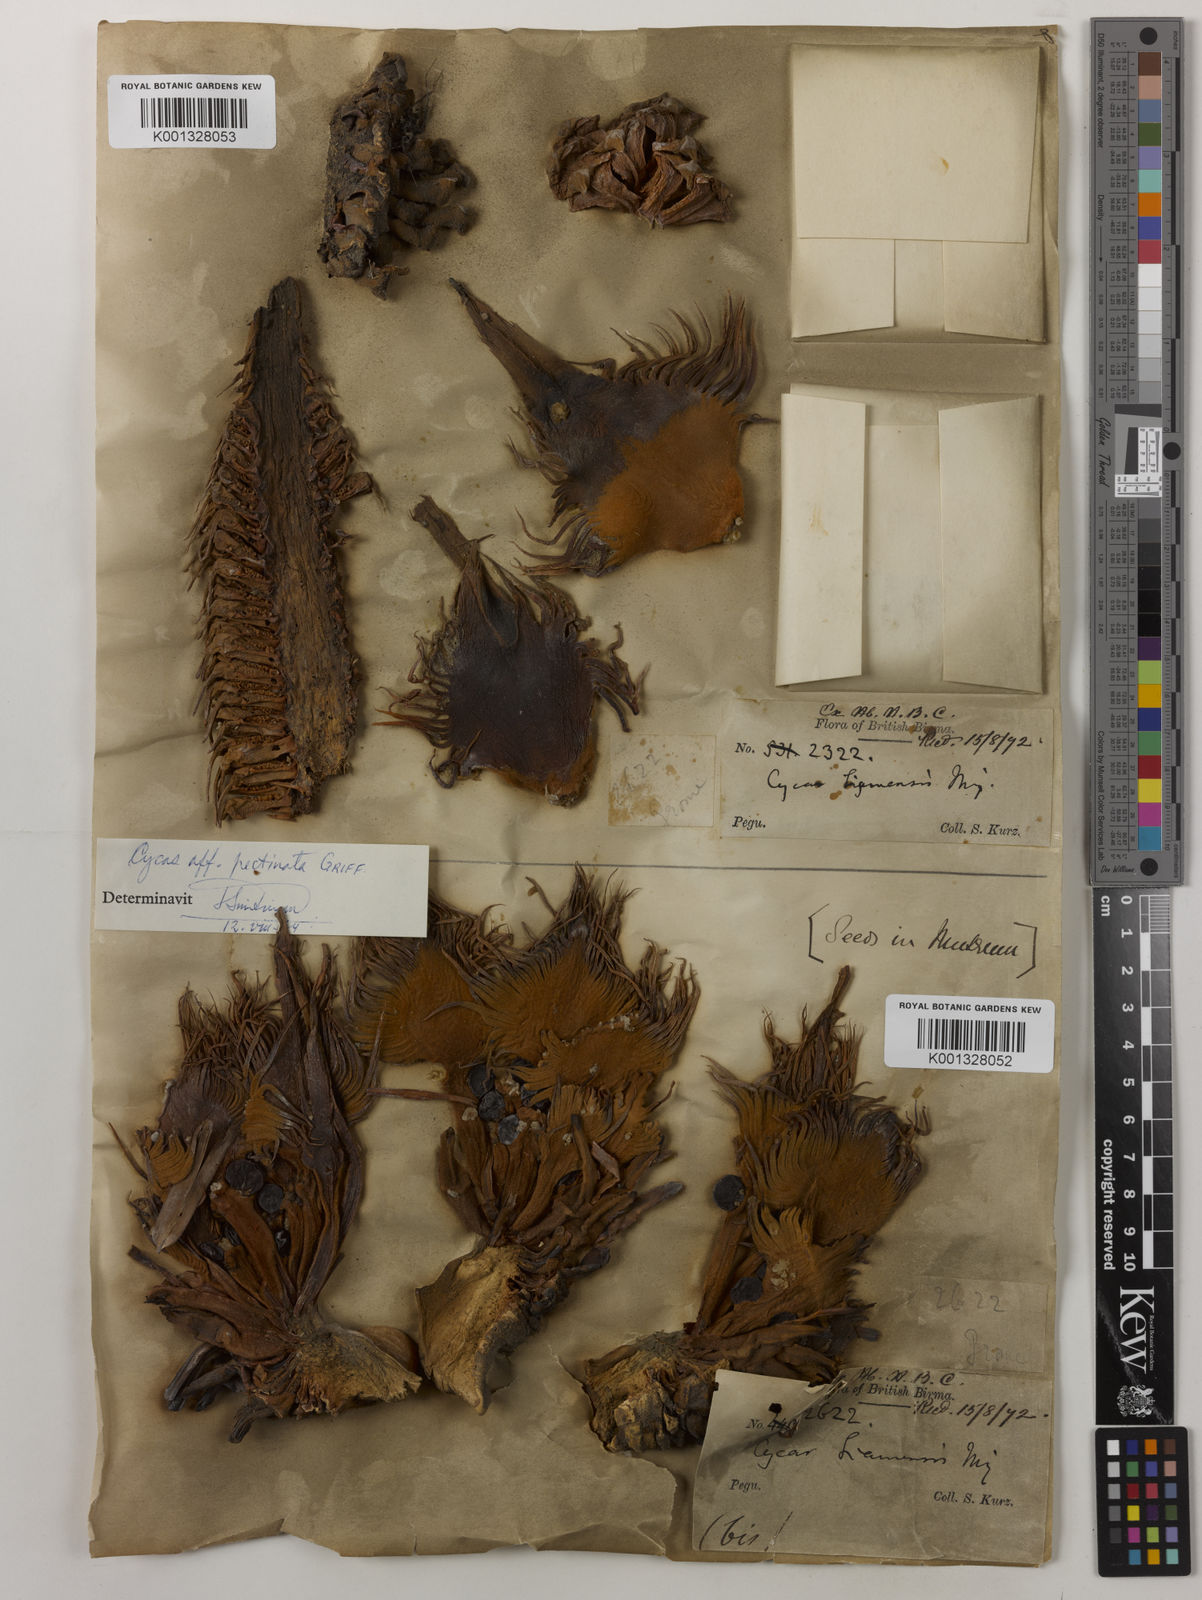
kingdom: Plantae
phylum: Tracheophyta
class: Cycadopsida
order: Cycadales
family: Cycadaceae
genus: Cycas
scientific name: Cycas siamensis
